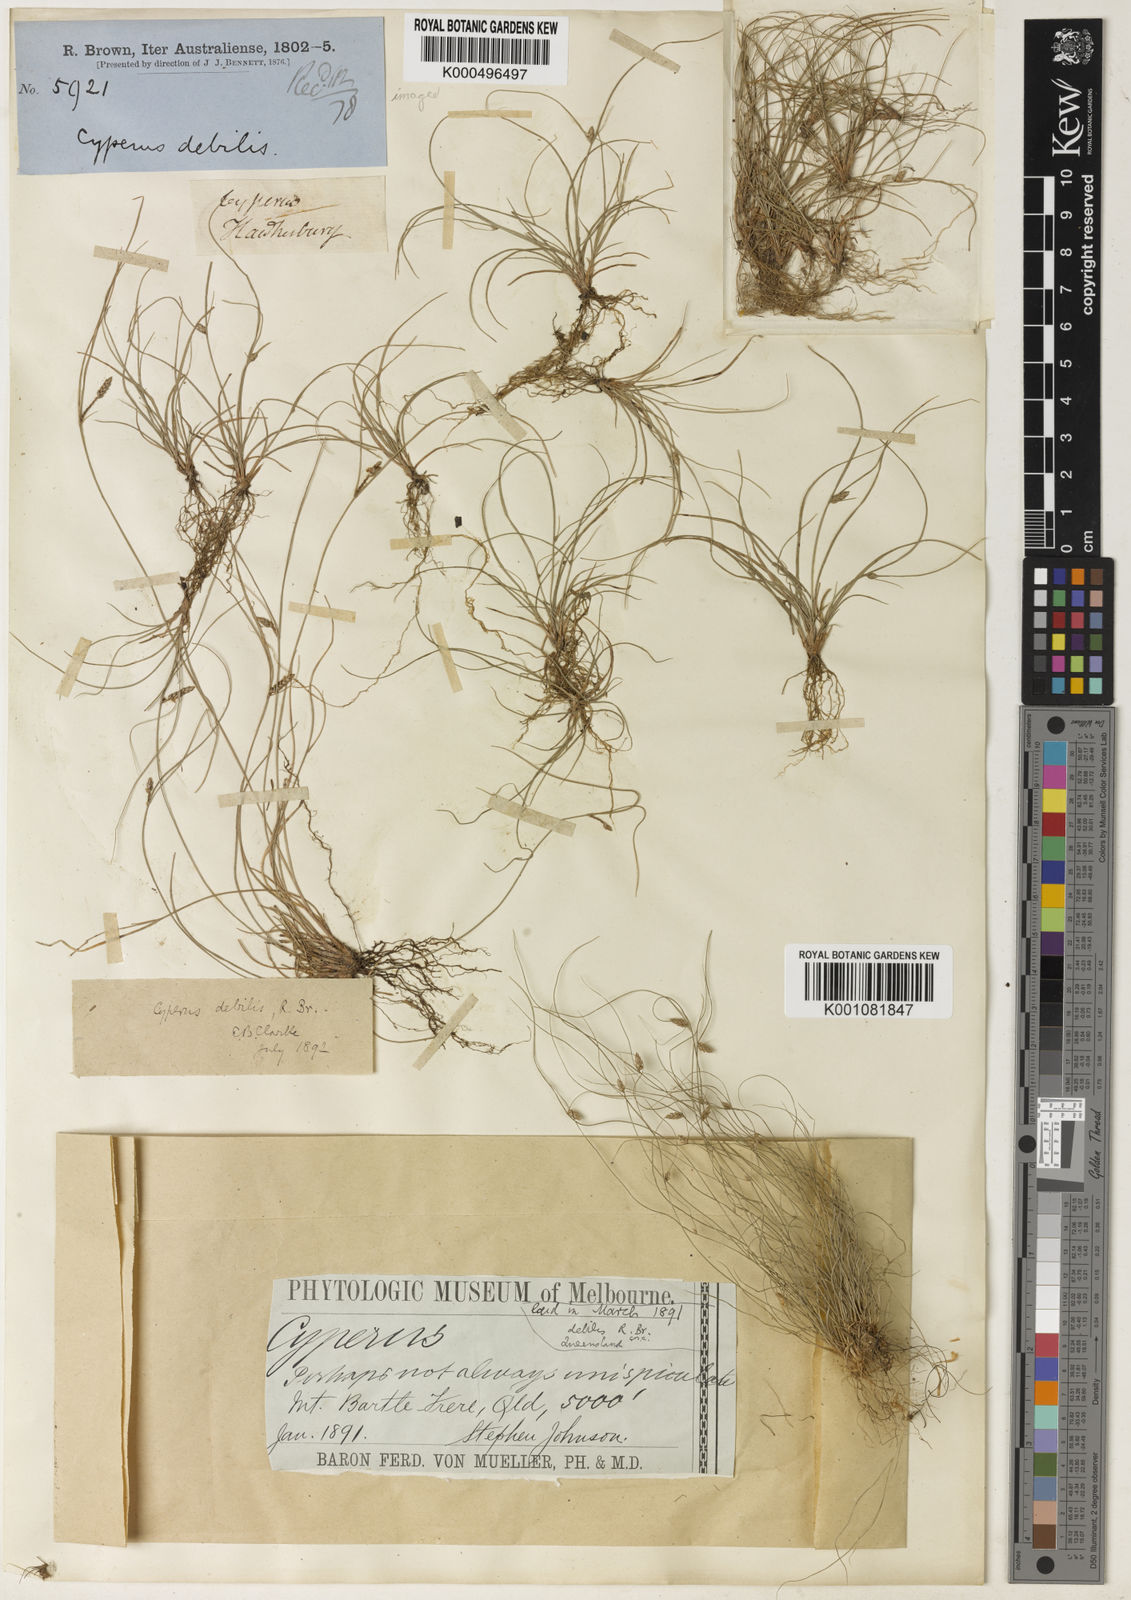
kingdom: Plantae
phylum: Tracheophyta
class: Liliopsida
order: Poales
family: Cyperaceae
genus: Cyperus
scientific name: Cyperus enervis
